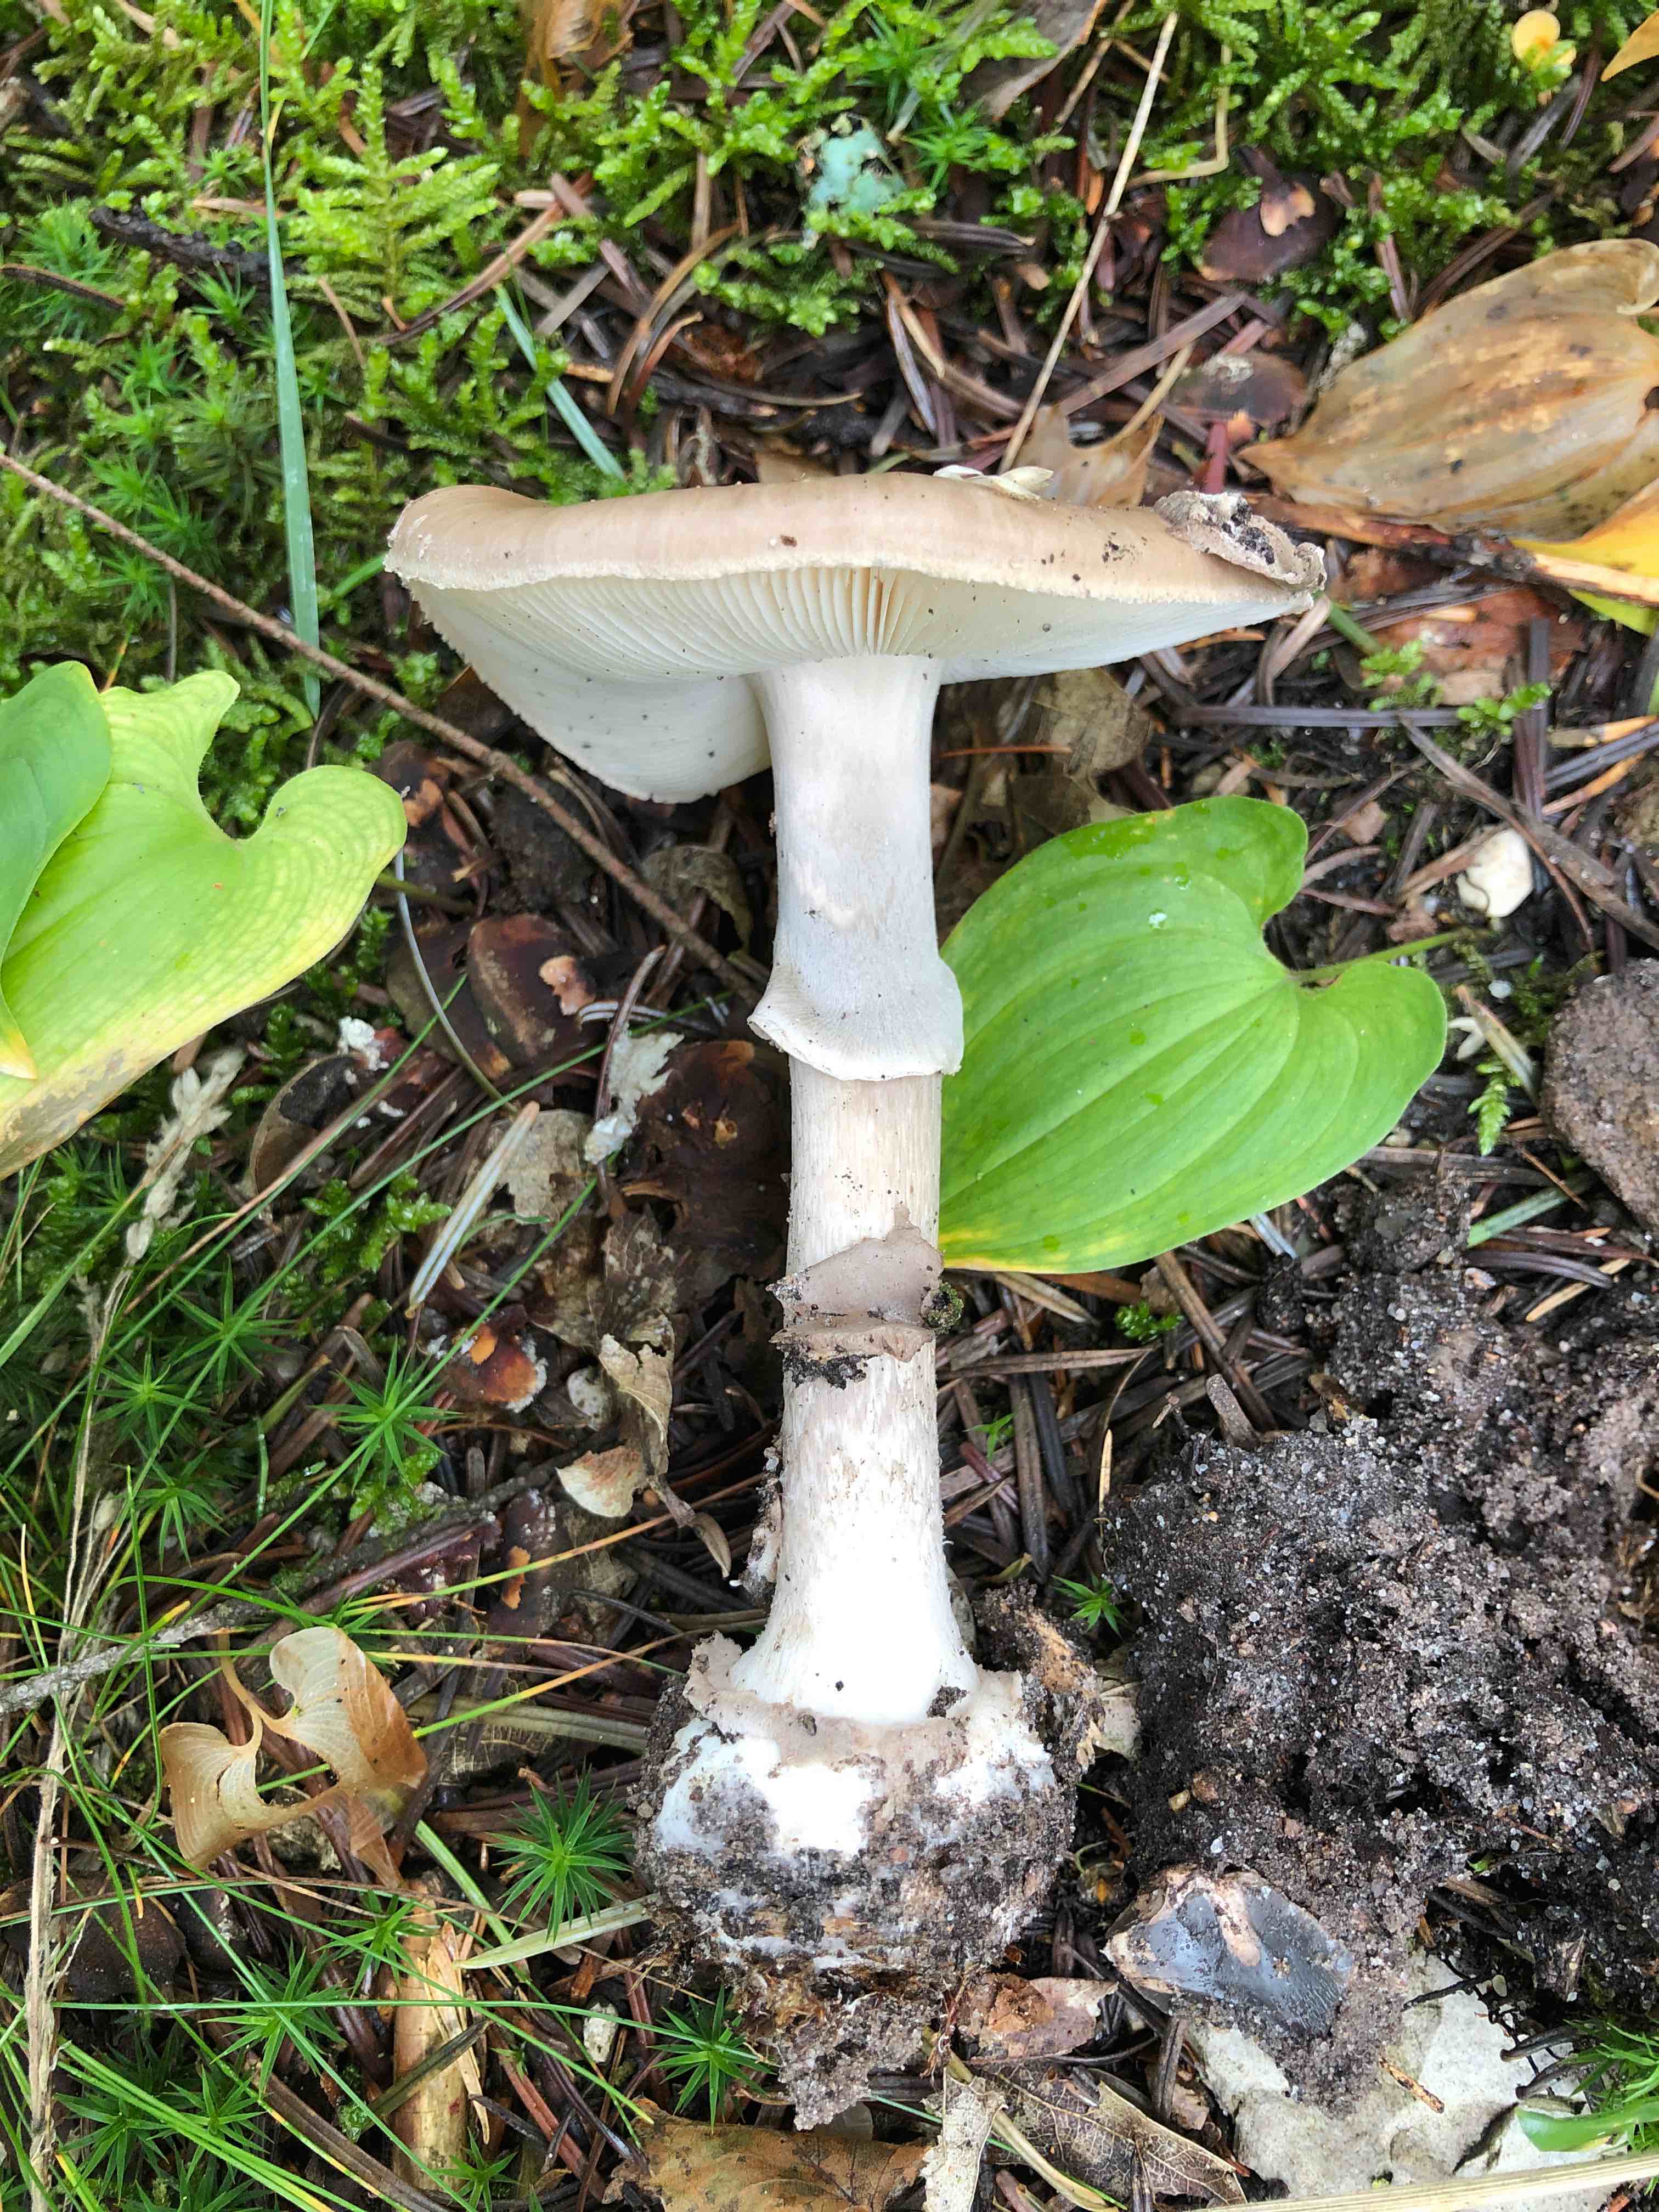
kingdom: Fungi
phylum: Basidiomycota
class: Agaricomycetes
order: Agaricales
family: Amanitaceae
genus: Amanita
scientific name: Amanita porphyria
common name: porfyr-fluesvamp
